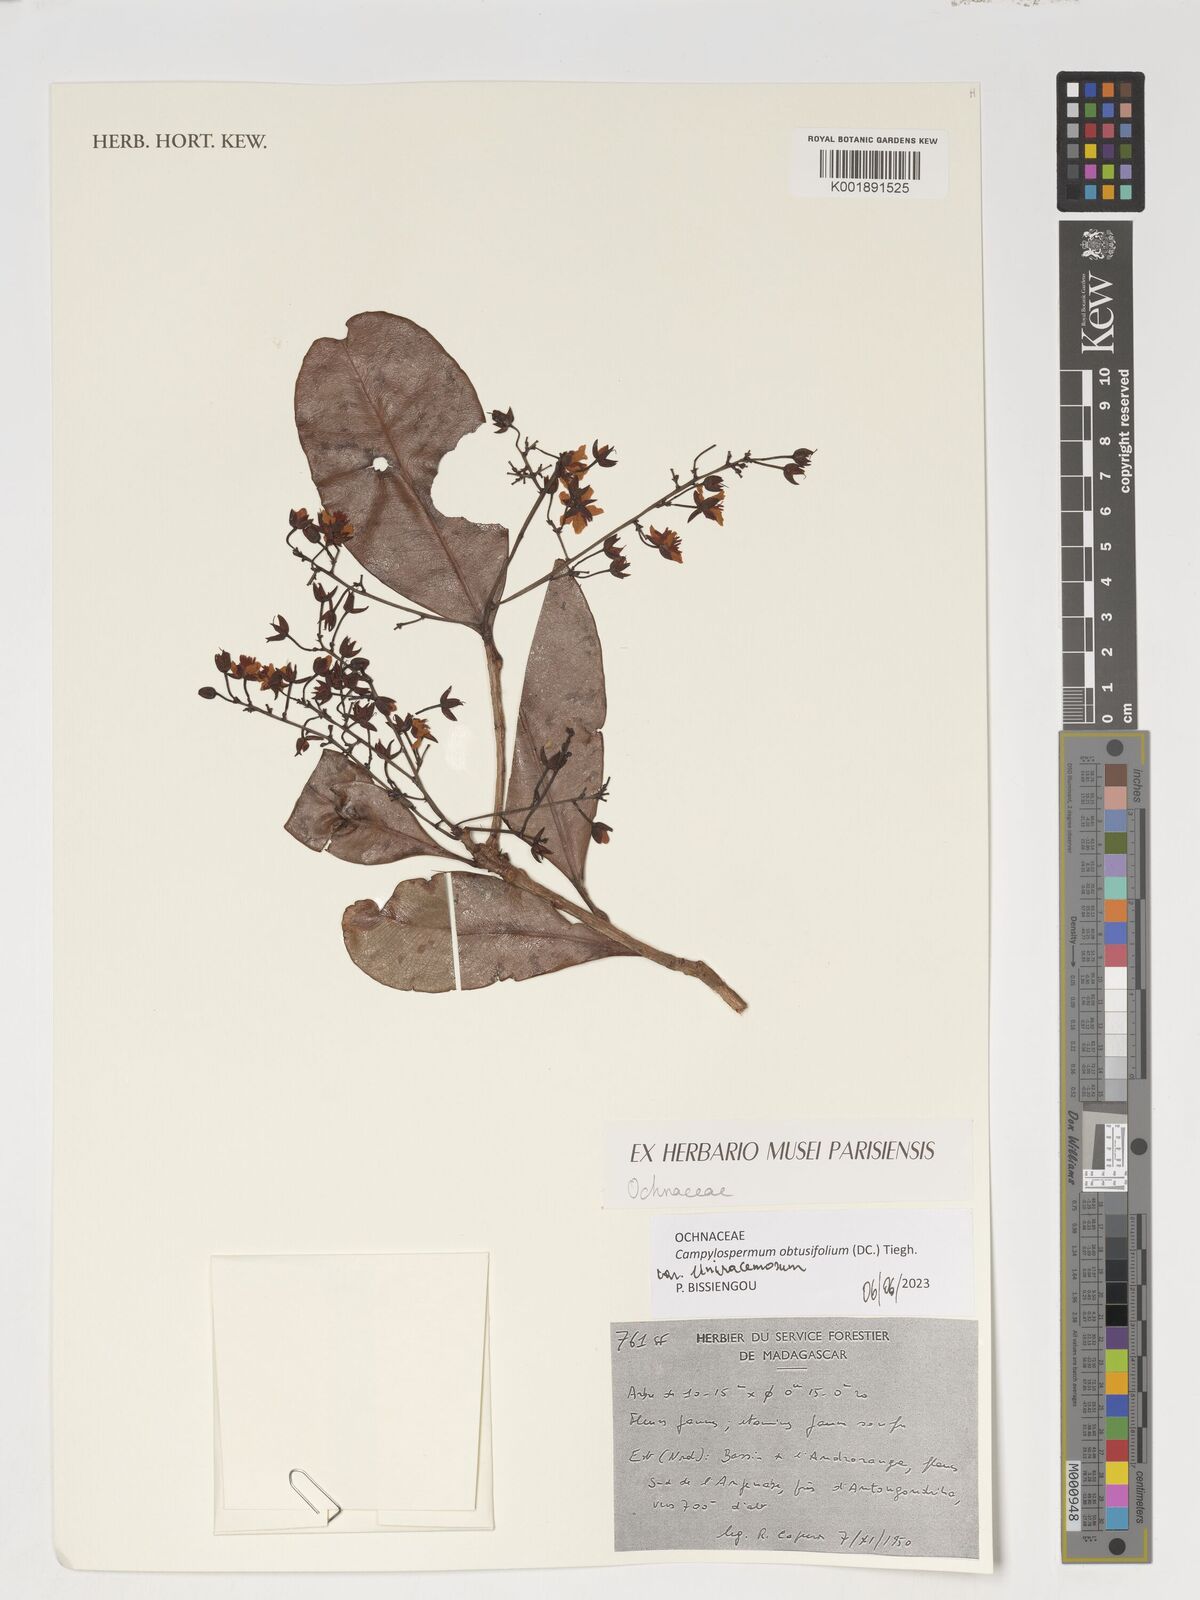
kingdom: Plantae
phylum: Tracheophyta
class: Magnoliopsida
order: Malpighiales
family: Ochnaceae
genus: Gomphia
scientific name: Gomphia obtusifolia
